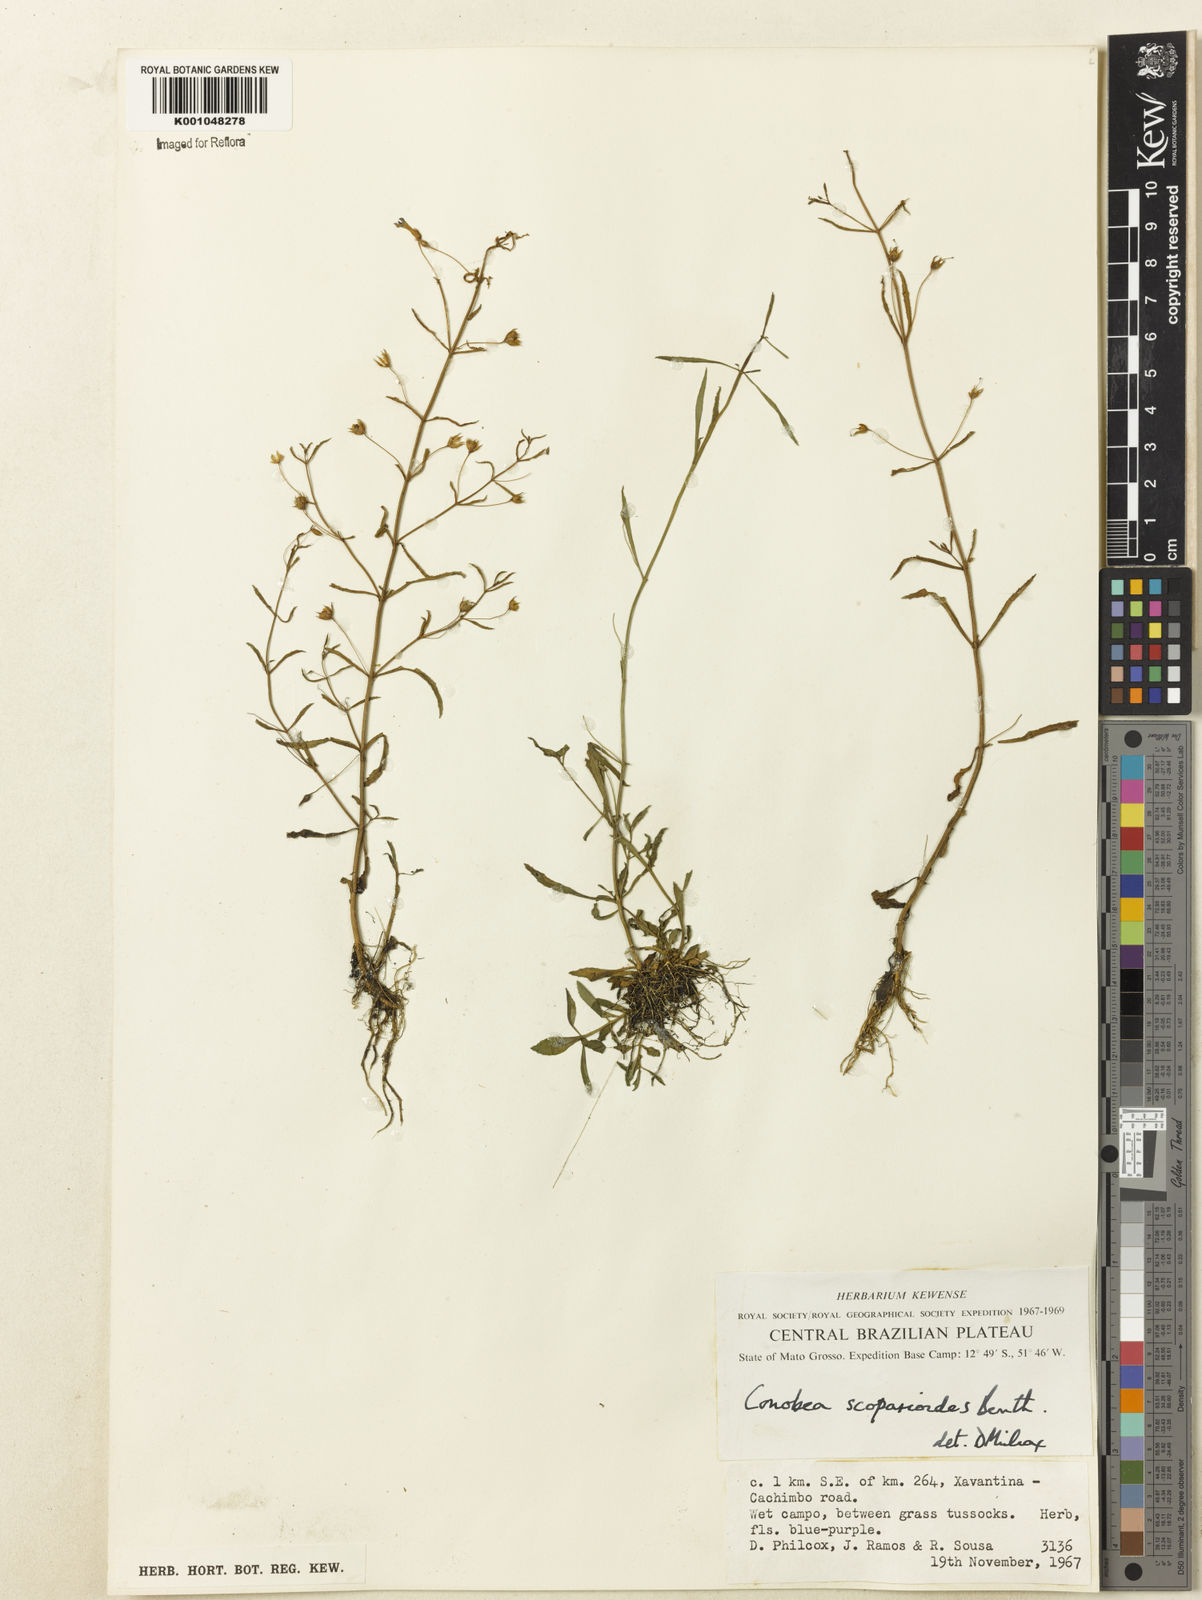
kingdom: Plantae
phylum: Tracheophyta
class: Magnoliopsida
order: Lamiales
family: Plantaginaceae
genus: Conobea
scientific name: Conobea scoparioides
